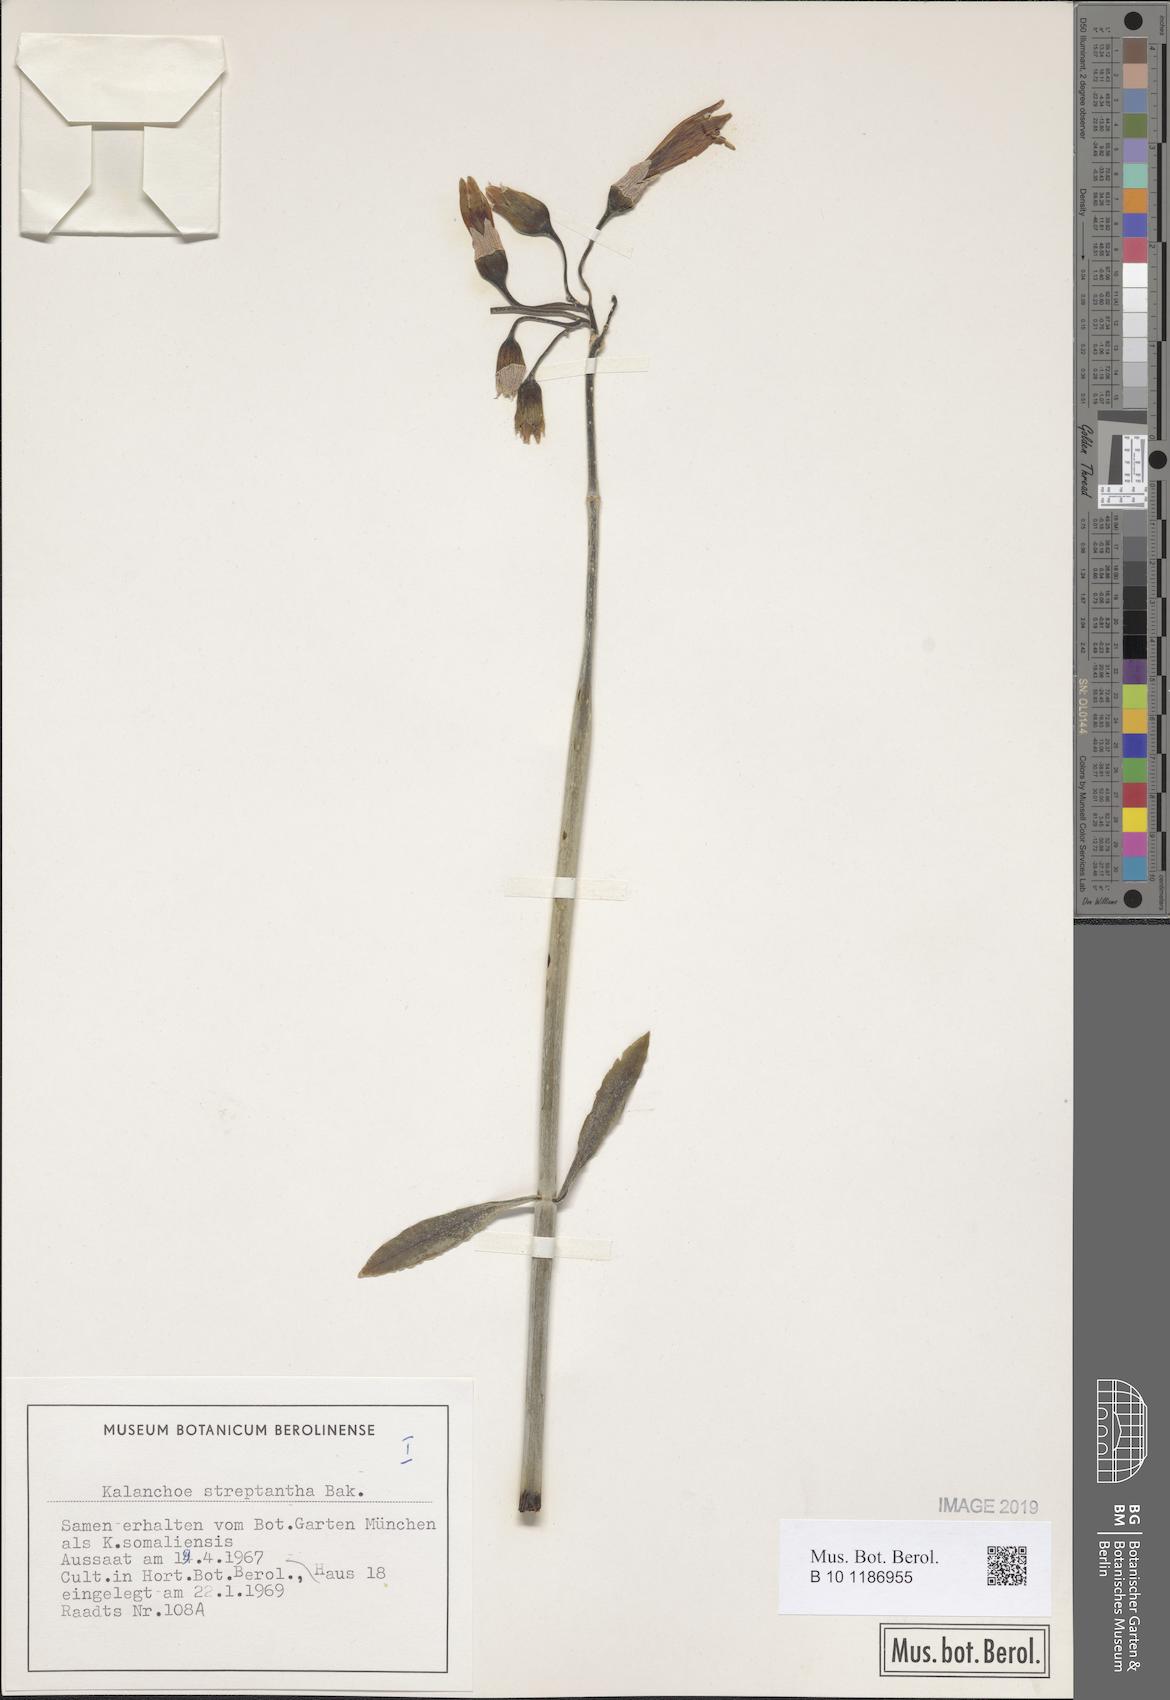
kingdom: Plantae
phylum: Tracheophyta
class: Magnoliopsida
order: Saxifragales
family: Crassulaceae
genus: Kalanchoe
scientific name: Kalanchoe streptantha
